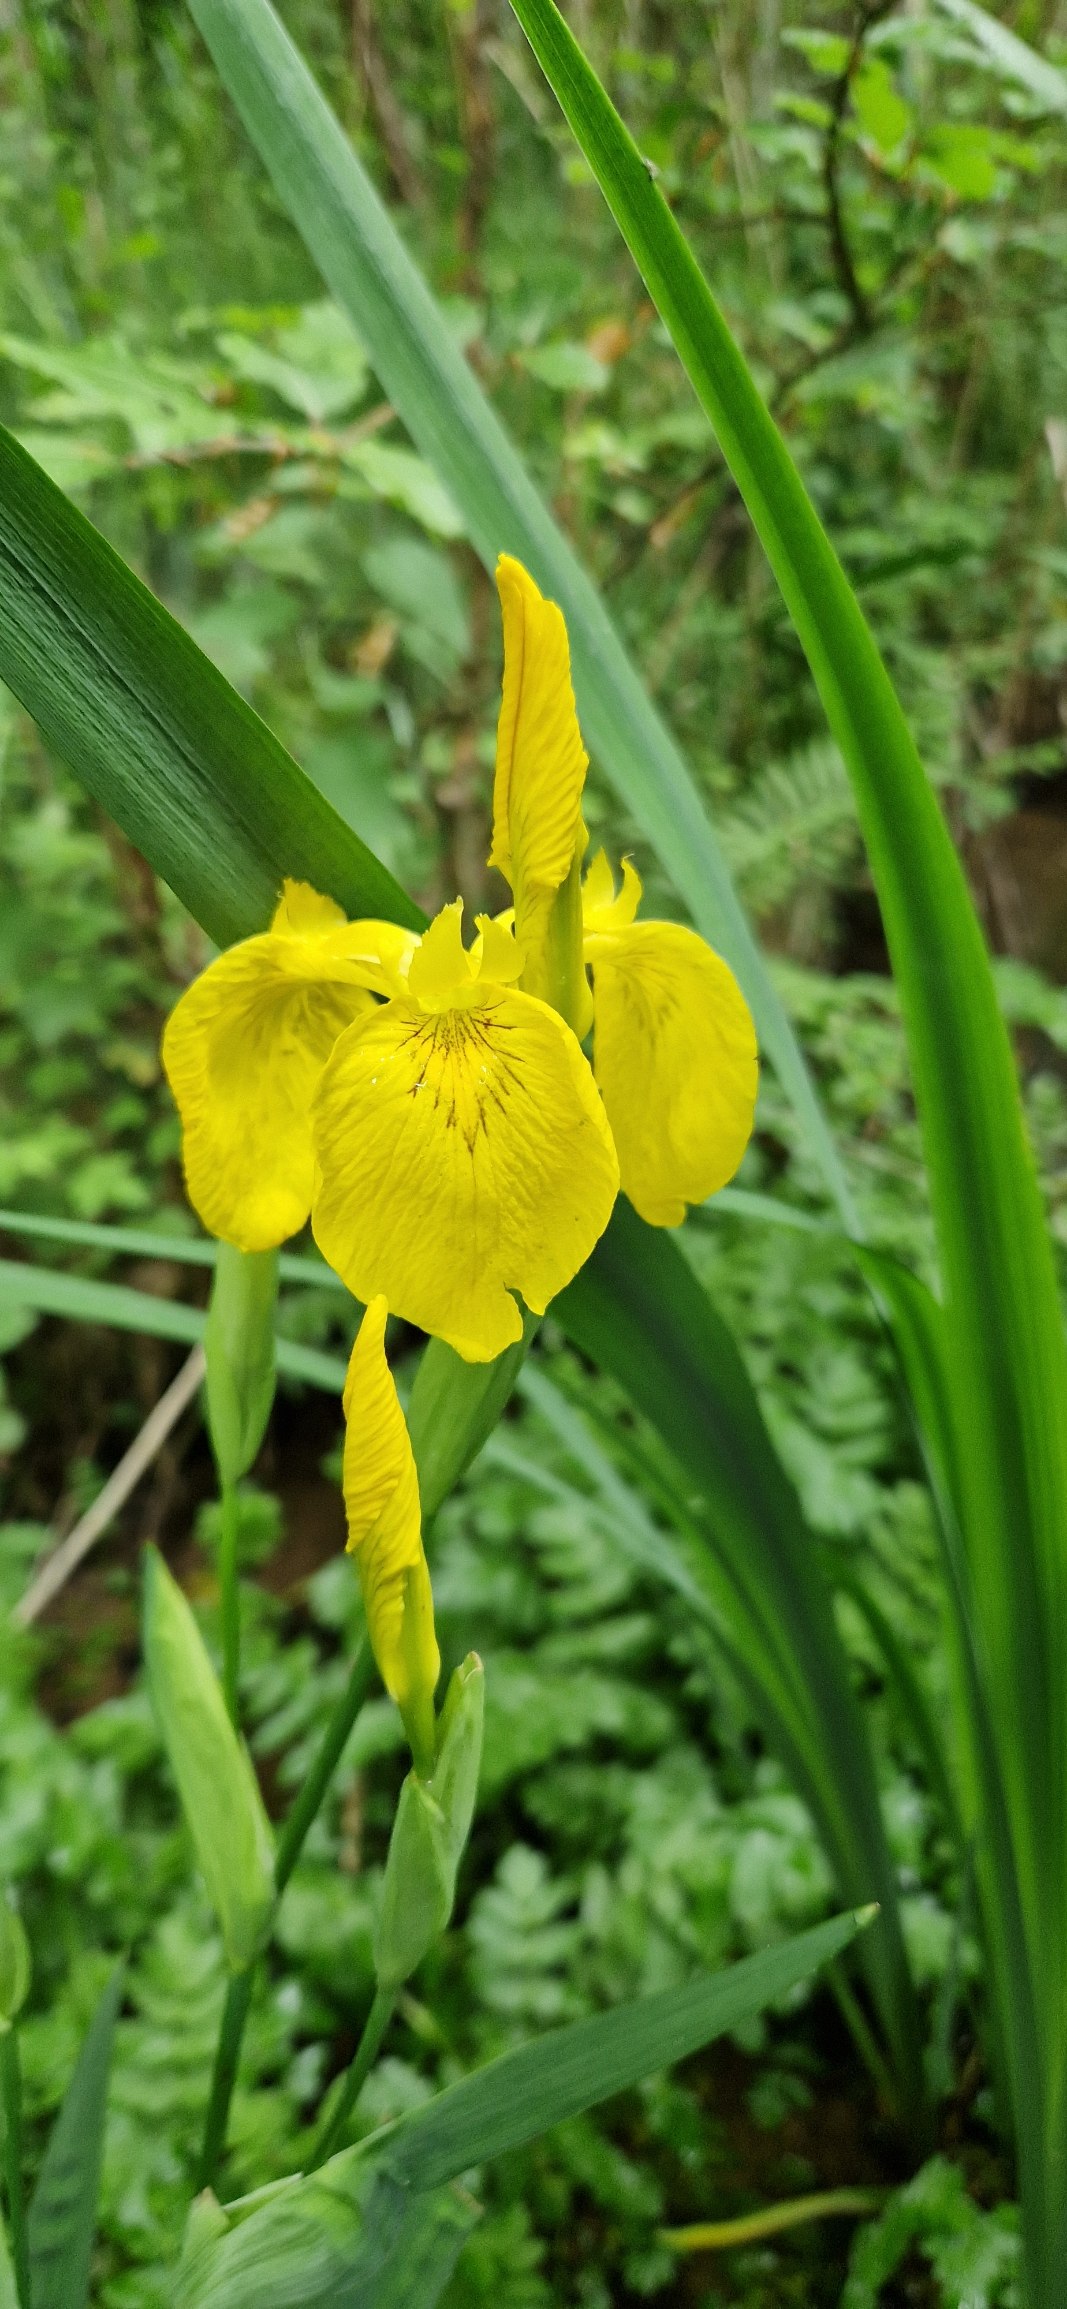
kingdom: Plantae
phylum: Tracheophyta
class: Liliopsida
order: Asparagales
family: Iridaceae
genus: Iris
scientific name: Iris pseudacorus
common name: Gul iris
